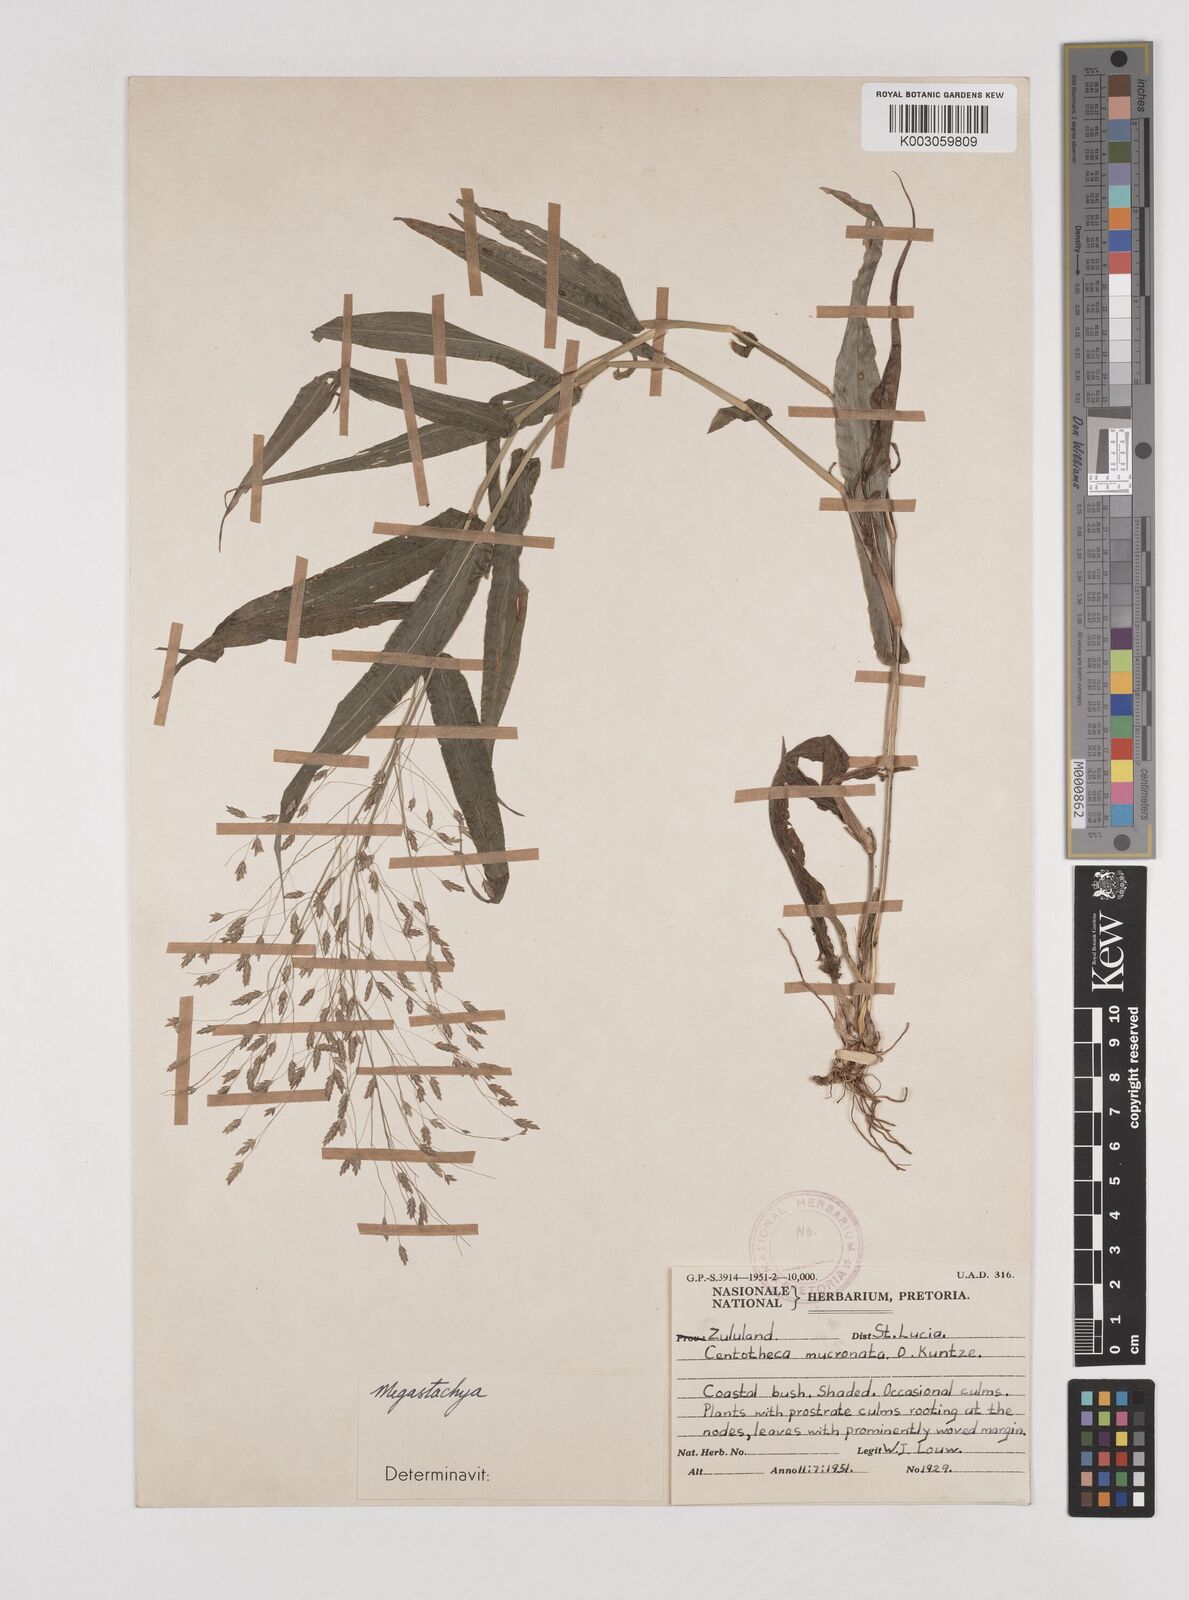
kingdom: Plantae
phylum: Tracheophyta
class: Liliopsida
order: Poales
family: Poaceae
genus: Megastachya
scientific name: Megastachya mucronata
